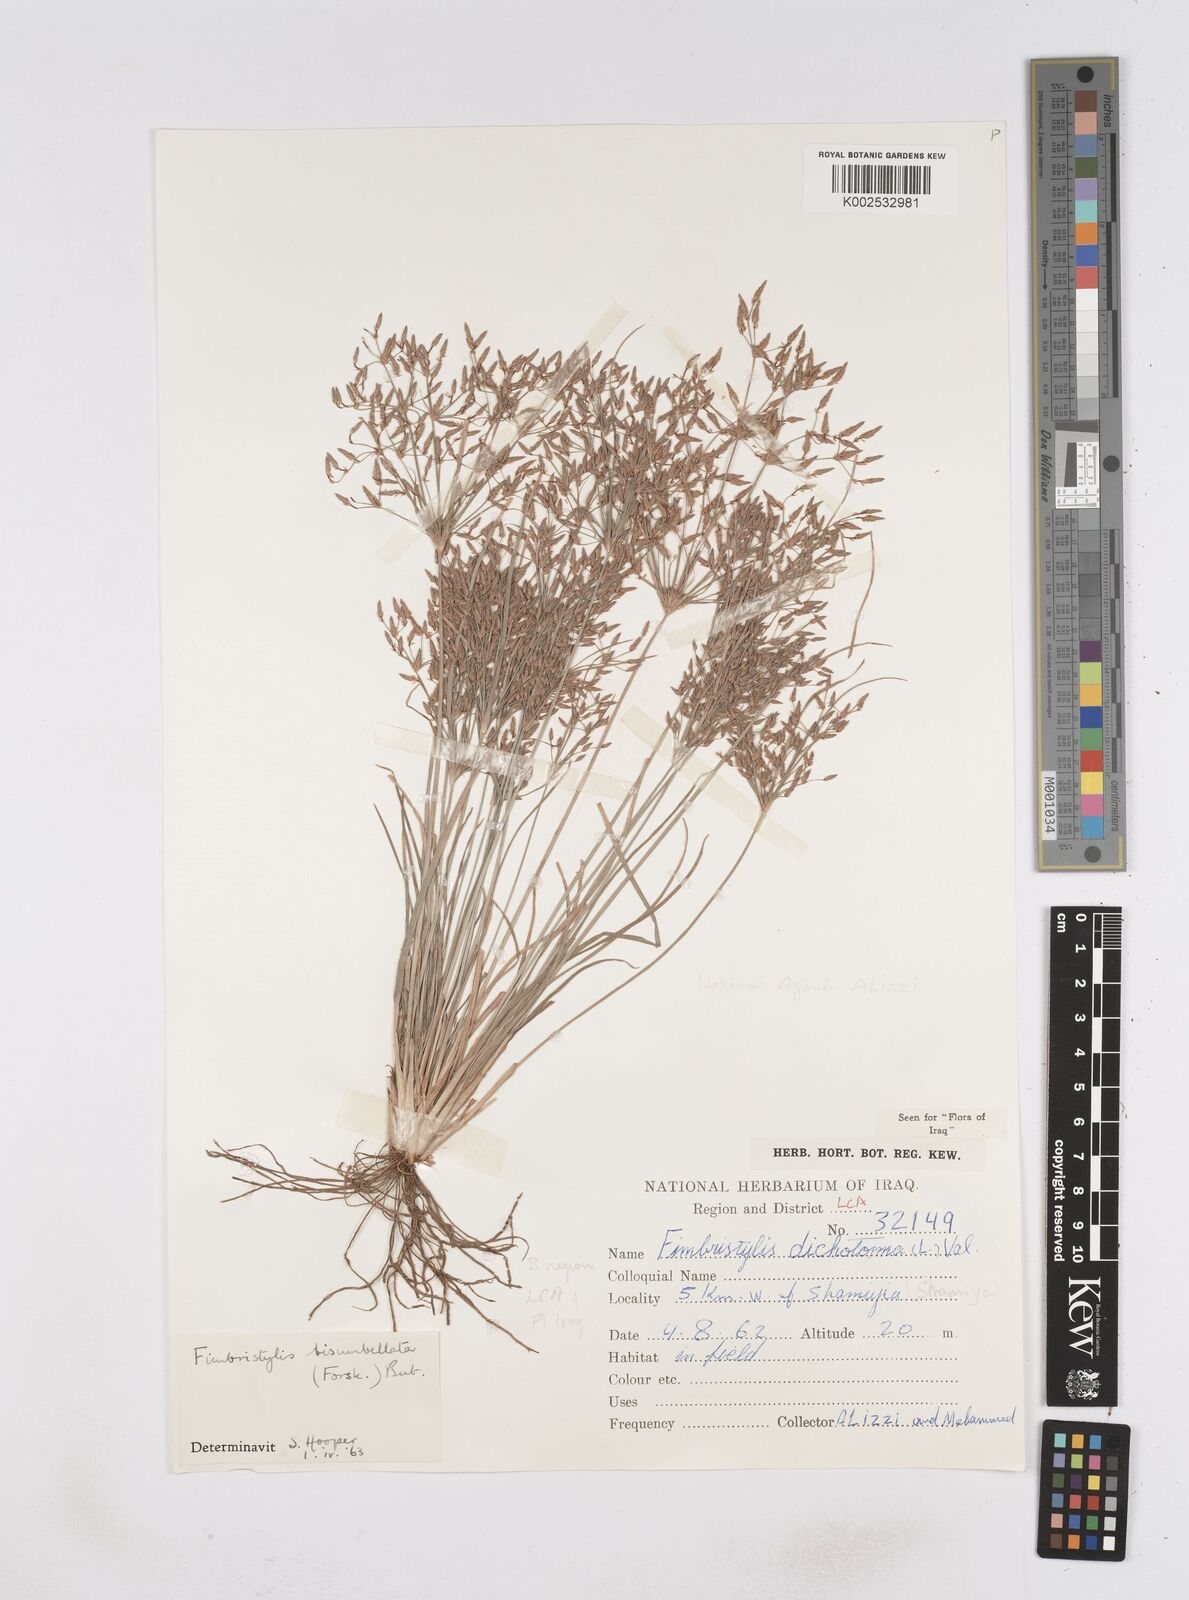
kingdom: Plantae
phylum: Tracheophyta
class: Liliopsida
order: Poales
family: Cyperaceae
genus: Fimbristylis
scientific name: Fimbristylis bisumbellata
